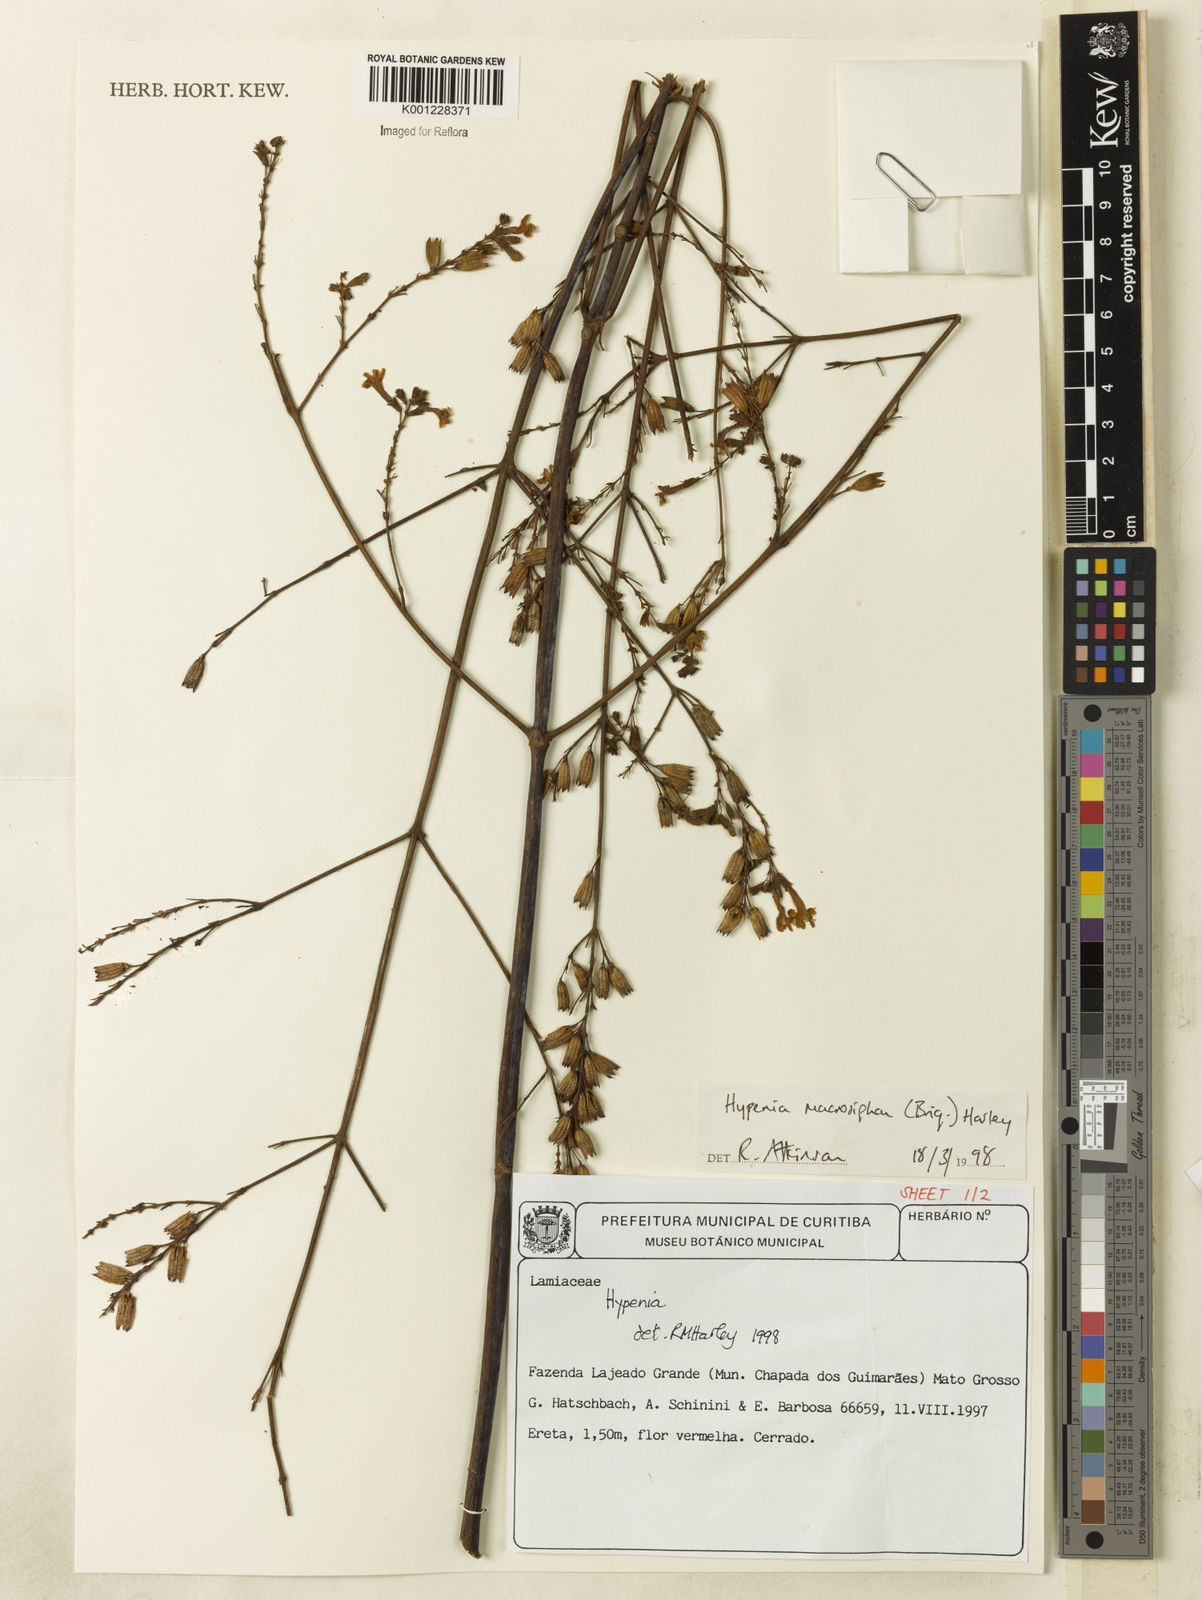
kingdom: Plantae
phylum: Tracheophyta
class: Magnoliopsida
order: Lamiales
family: Lamiaceae
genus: Hypenia
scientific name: Hypenia macrosiphon
